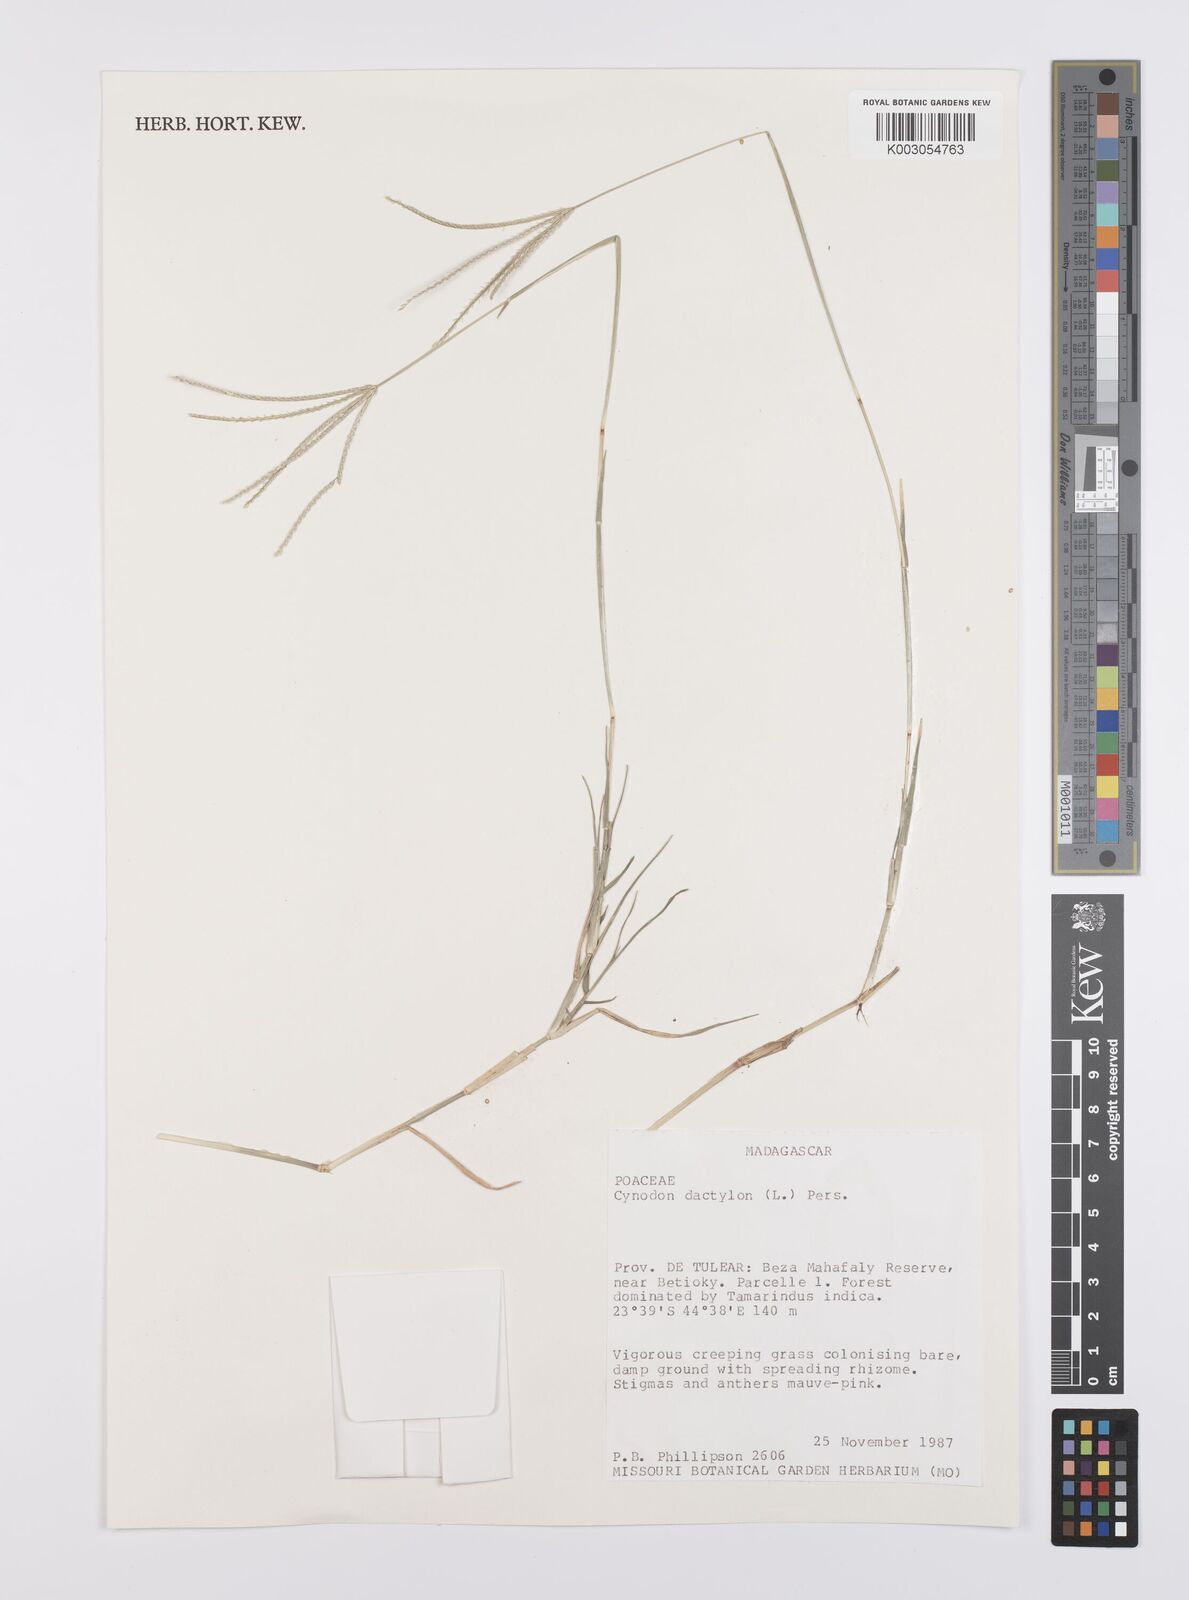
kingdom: Plantae
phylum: Tracheophyta
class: Liliopsida
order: Poales
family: Poaceae
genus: Cynodon
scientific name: Cynodon dactylon
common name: Bermuda grass
